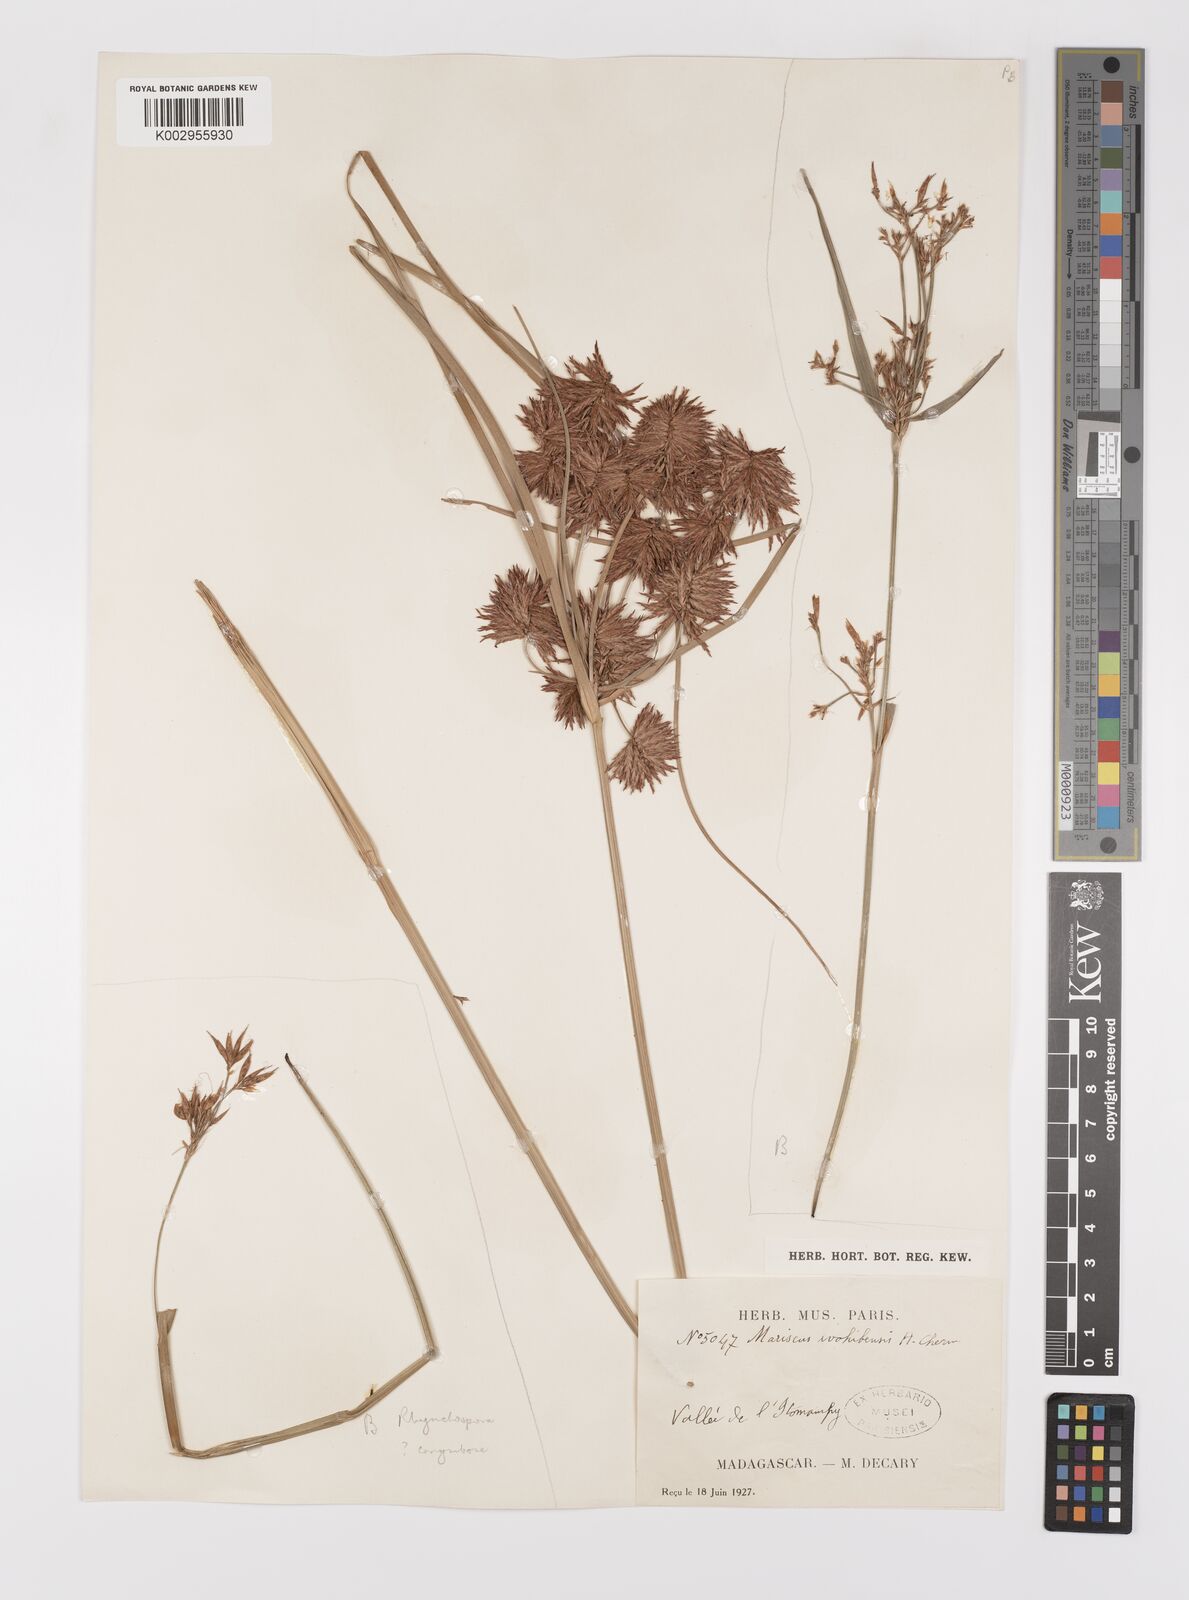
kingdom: Plantae
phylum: Tracheophyta
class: Liliopsida
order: Poales
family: Cyperaceae
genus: Cyperus
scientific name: Cyperus ivohibensis
